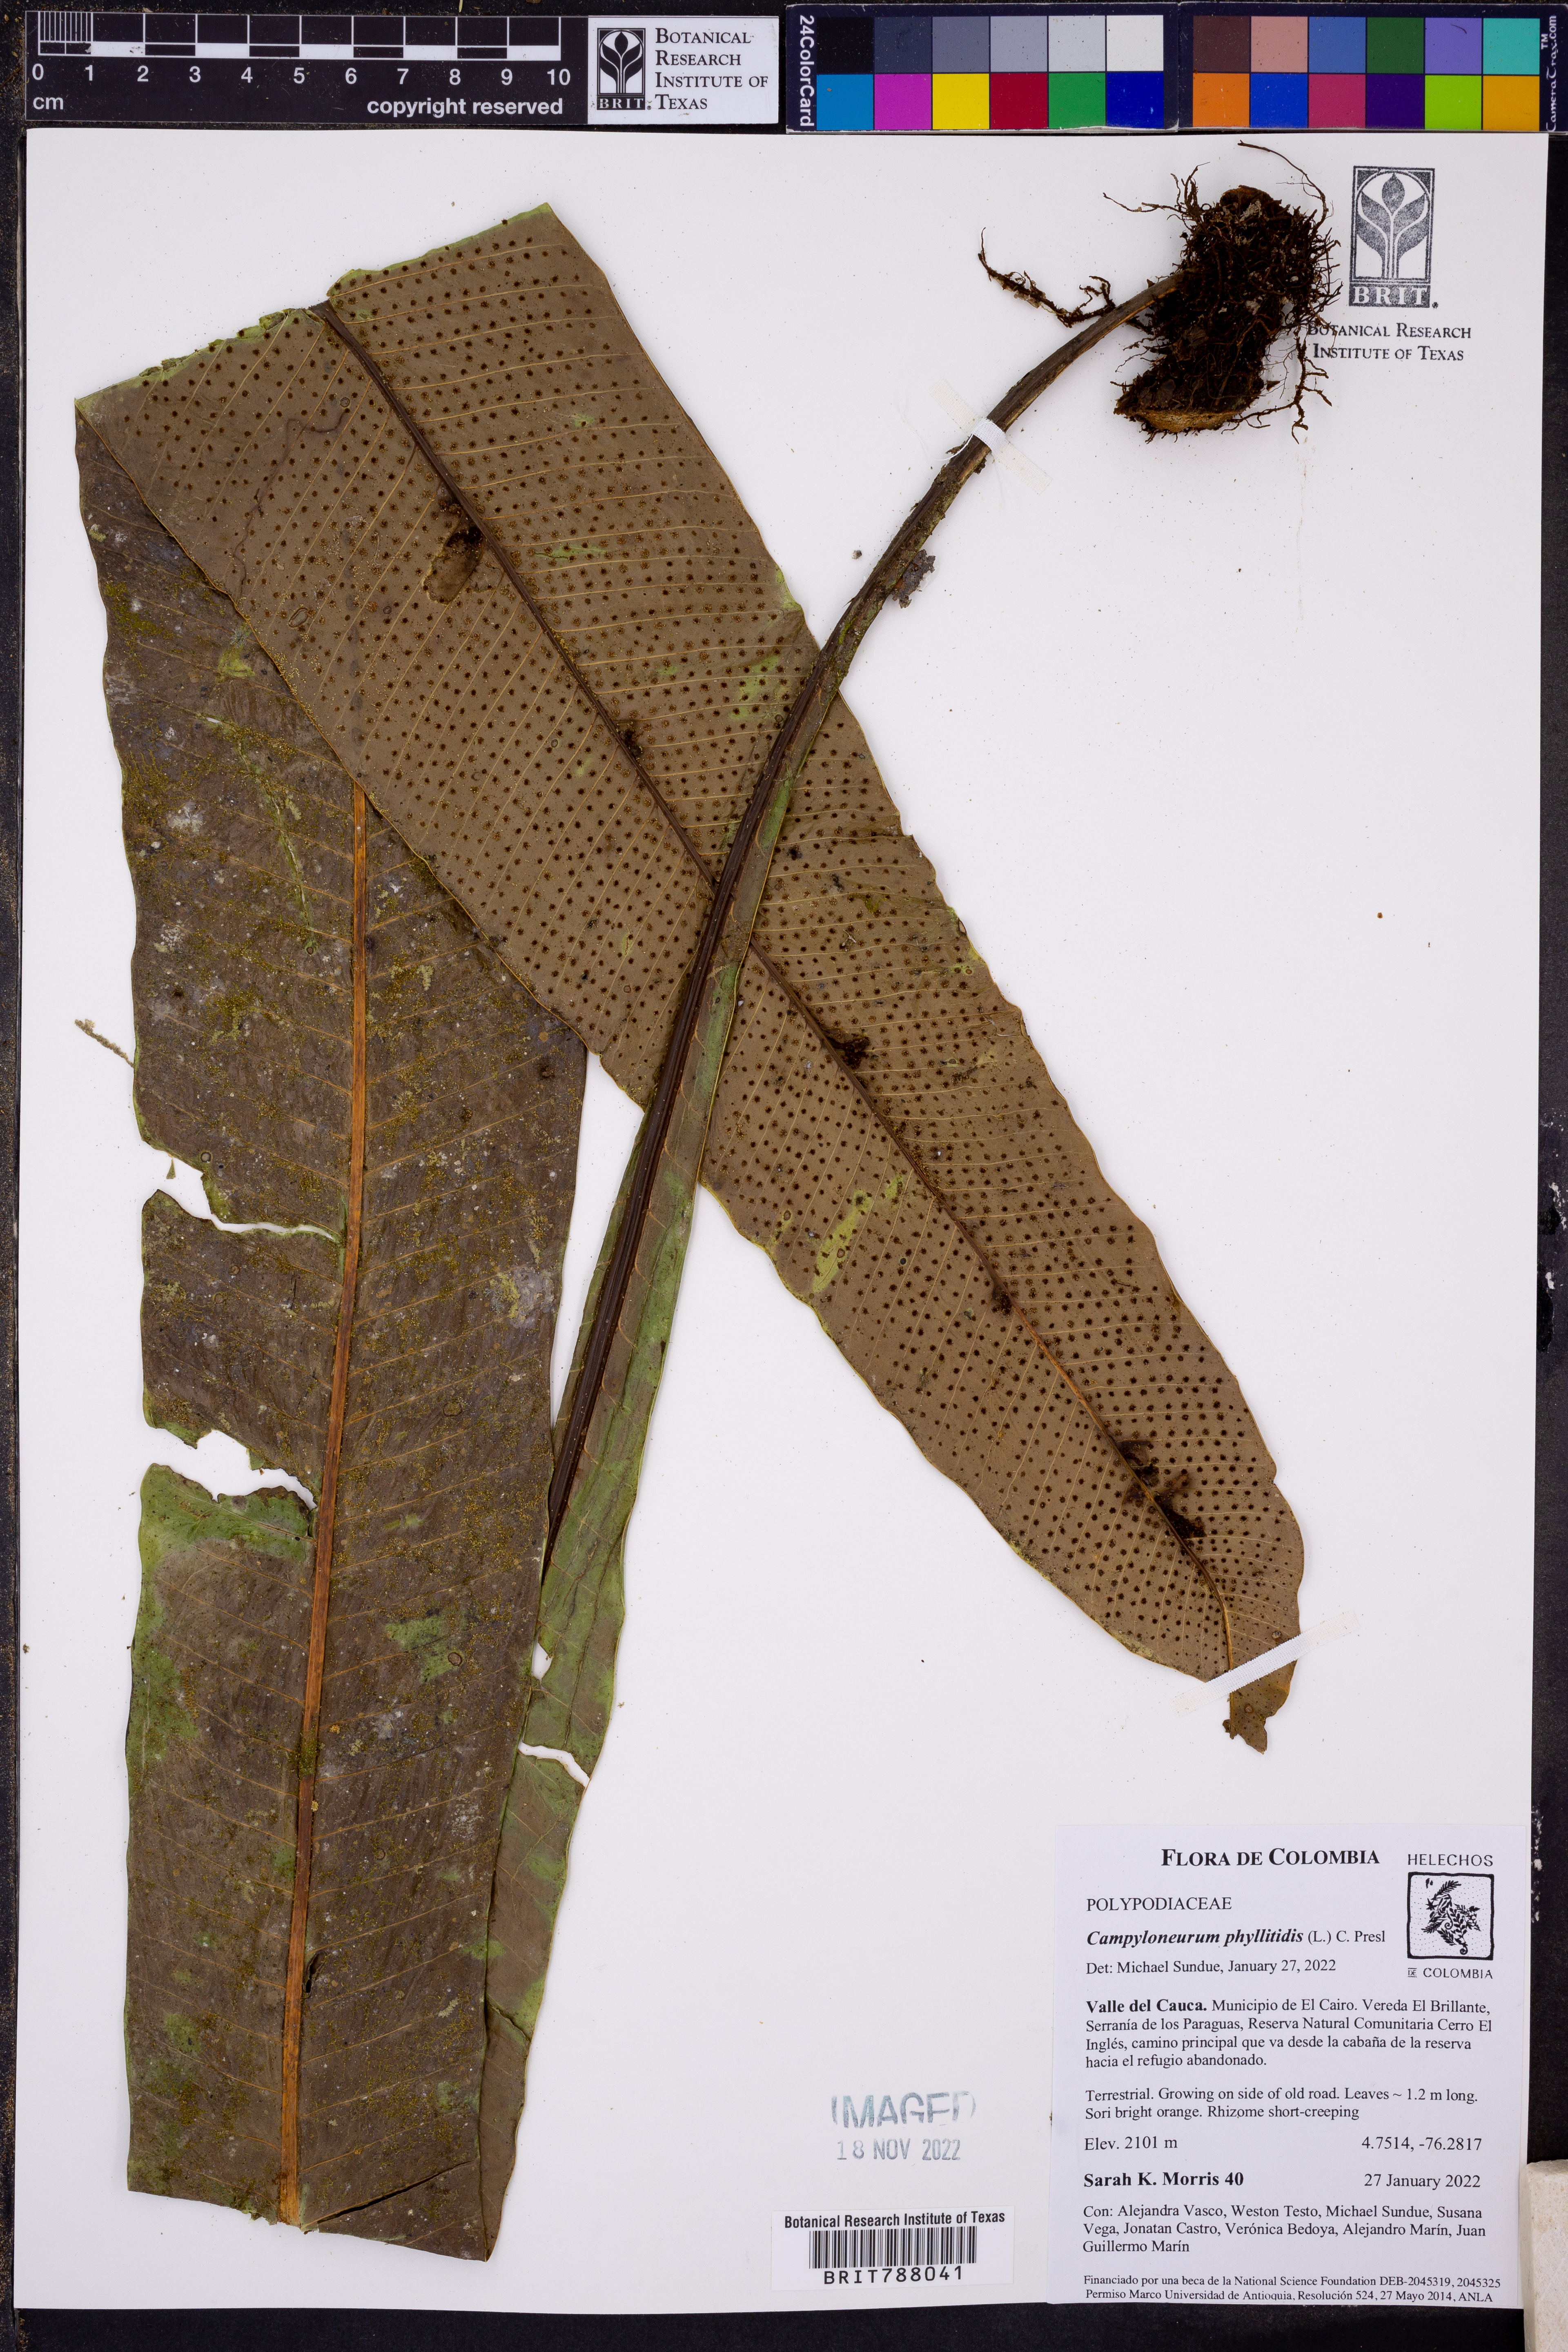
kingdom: Plantae
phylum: Tracheophyta
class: Polypodiopsida
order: Polypodiales
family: Polypodiaceae
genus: Campyloneurum
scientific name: Campyloneurum phyllitidis
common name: Cow-tongue fern
